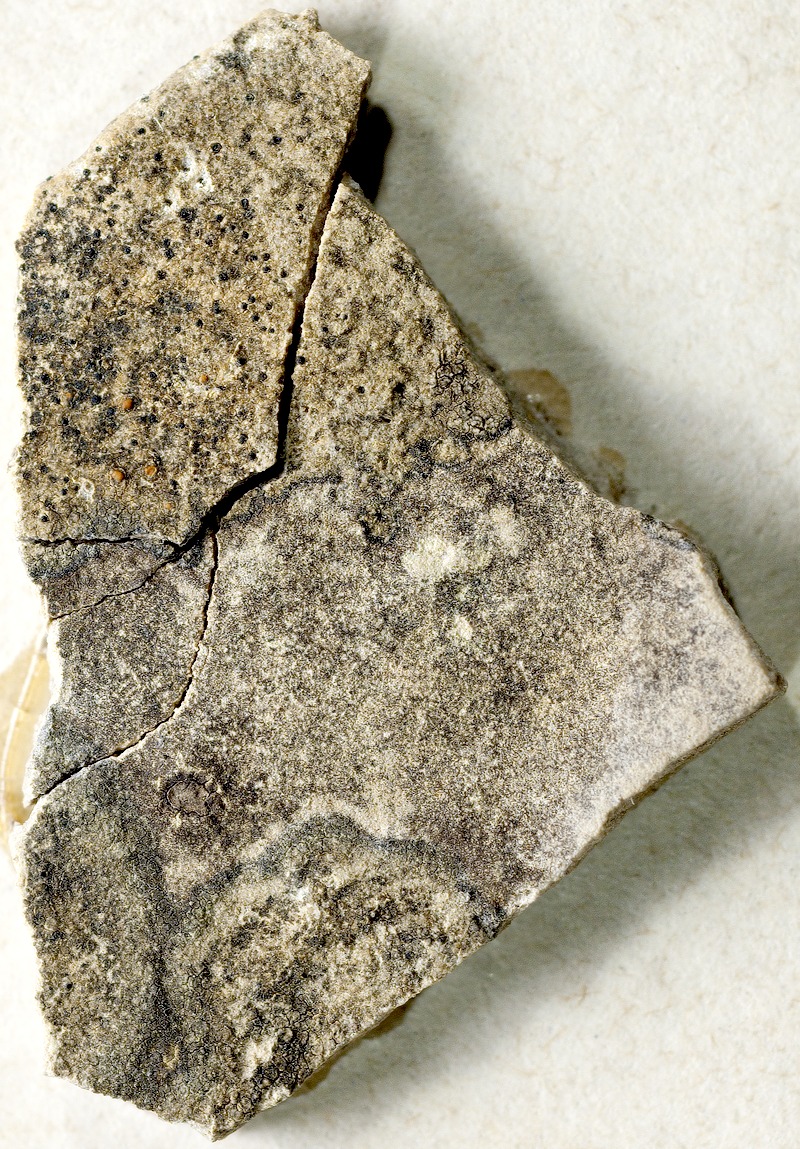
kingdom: Fungi
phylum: Ascomycota
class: Lecanoromycetes
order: Lecanorales
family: Psoraceae
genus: Protoblastenia
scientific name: Protoblastenia rupestris
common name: Chewing gum lichen
